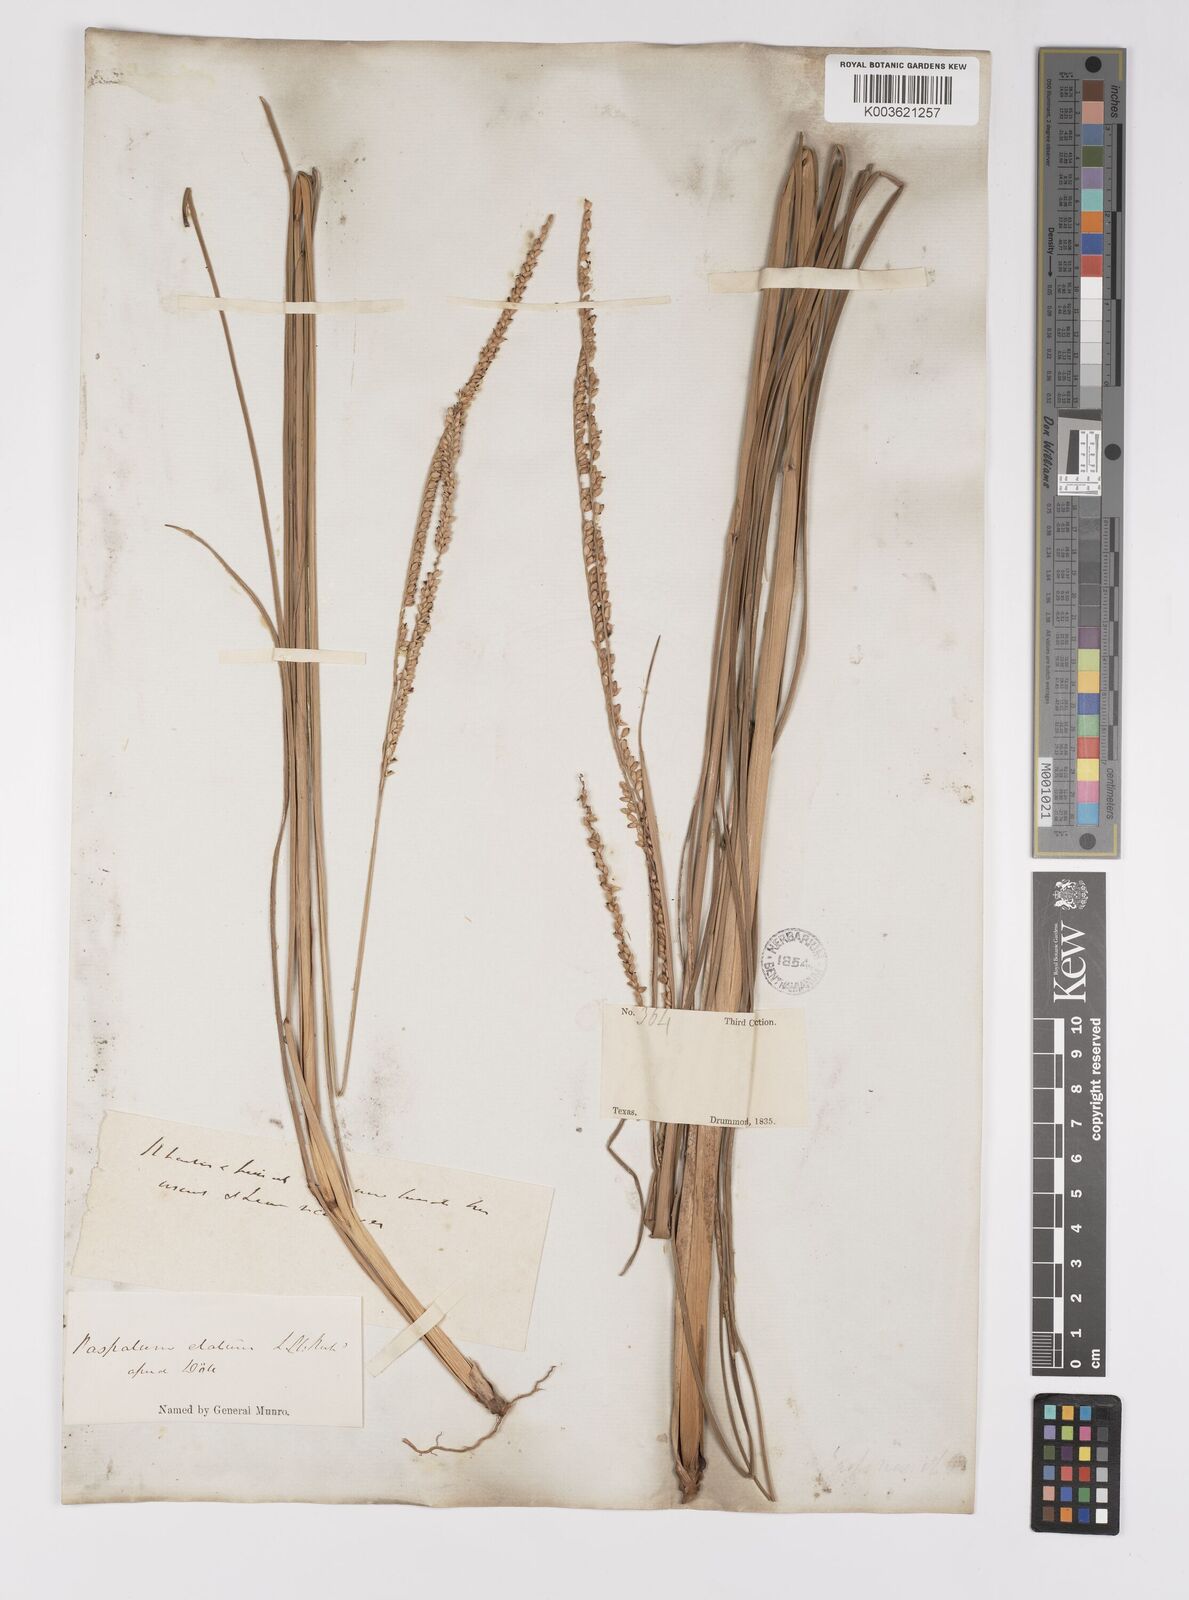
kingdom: Plantae
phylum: Tracheophyta
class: Liliopsida
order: Poales
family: Poaceae
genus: Paspalum
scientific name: Paspalum monostachyum
